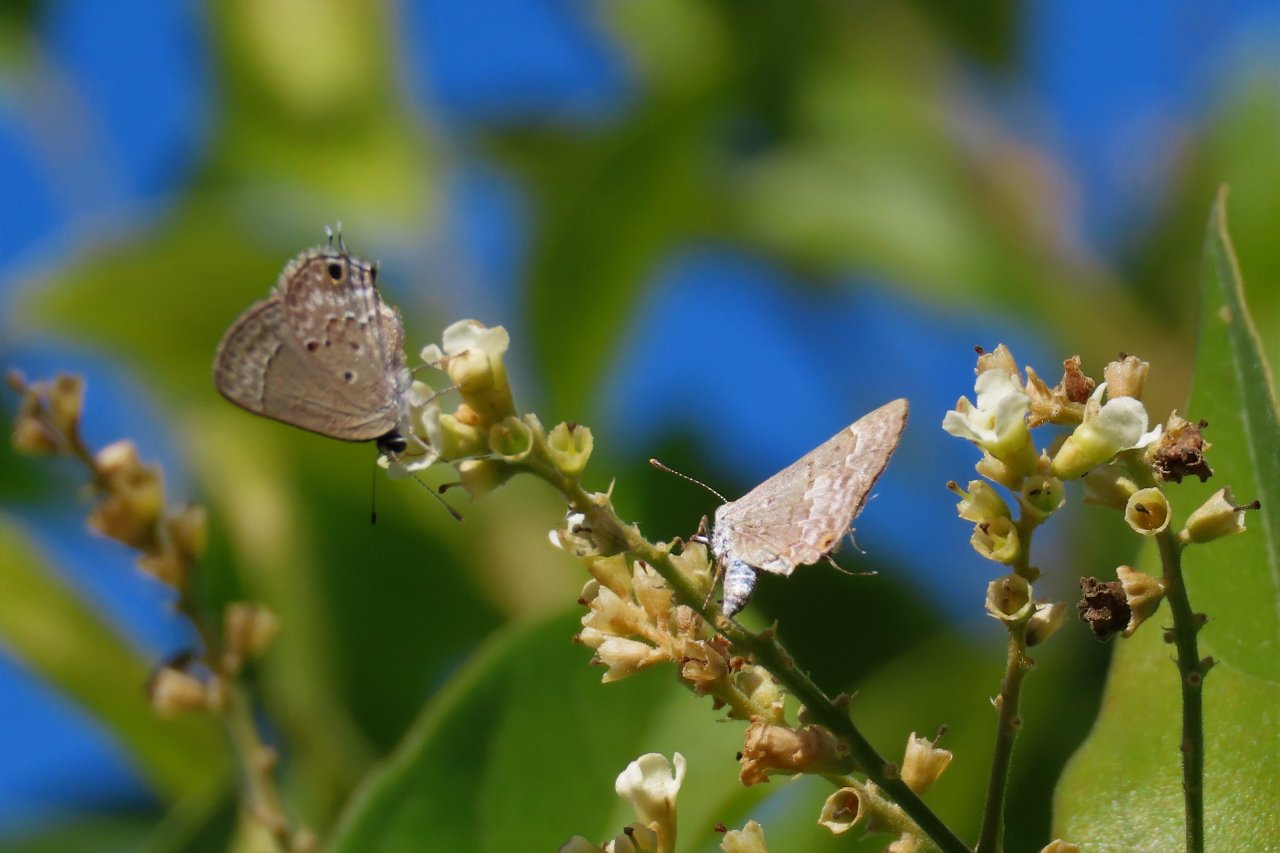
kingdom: Animalia
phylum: Arthropoda
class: Insecta
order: Lepidoptera
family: Lycaenidae
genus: Ministrymon
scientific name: Ministrymon clytie
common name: Clytie Ministreak
